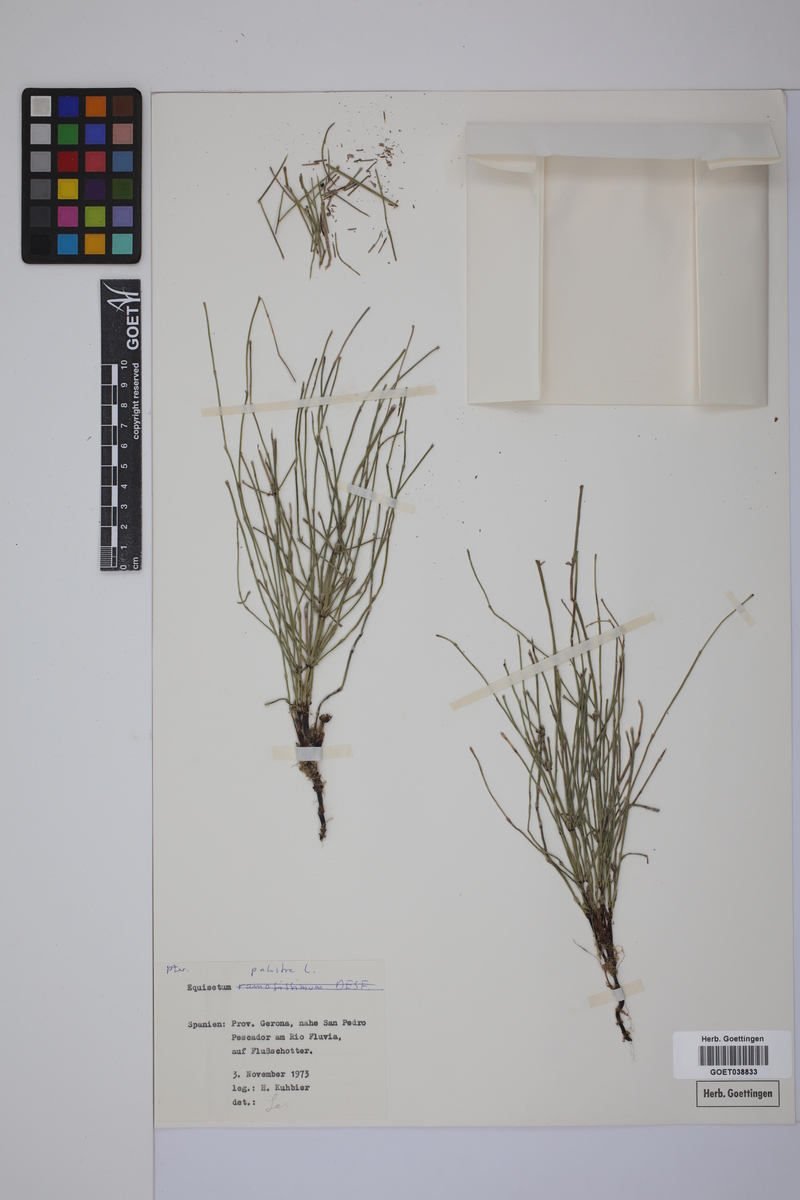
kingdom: Plantae
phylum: Tracheophyta
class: Polypodiopsida
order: Equisetales
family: Equisetaceae
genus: Equisetum
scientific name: Equisetum palustre
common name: Marsh horsetail
